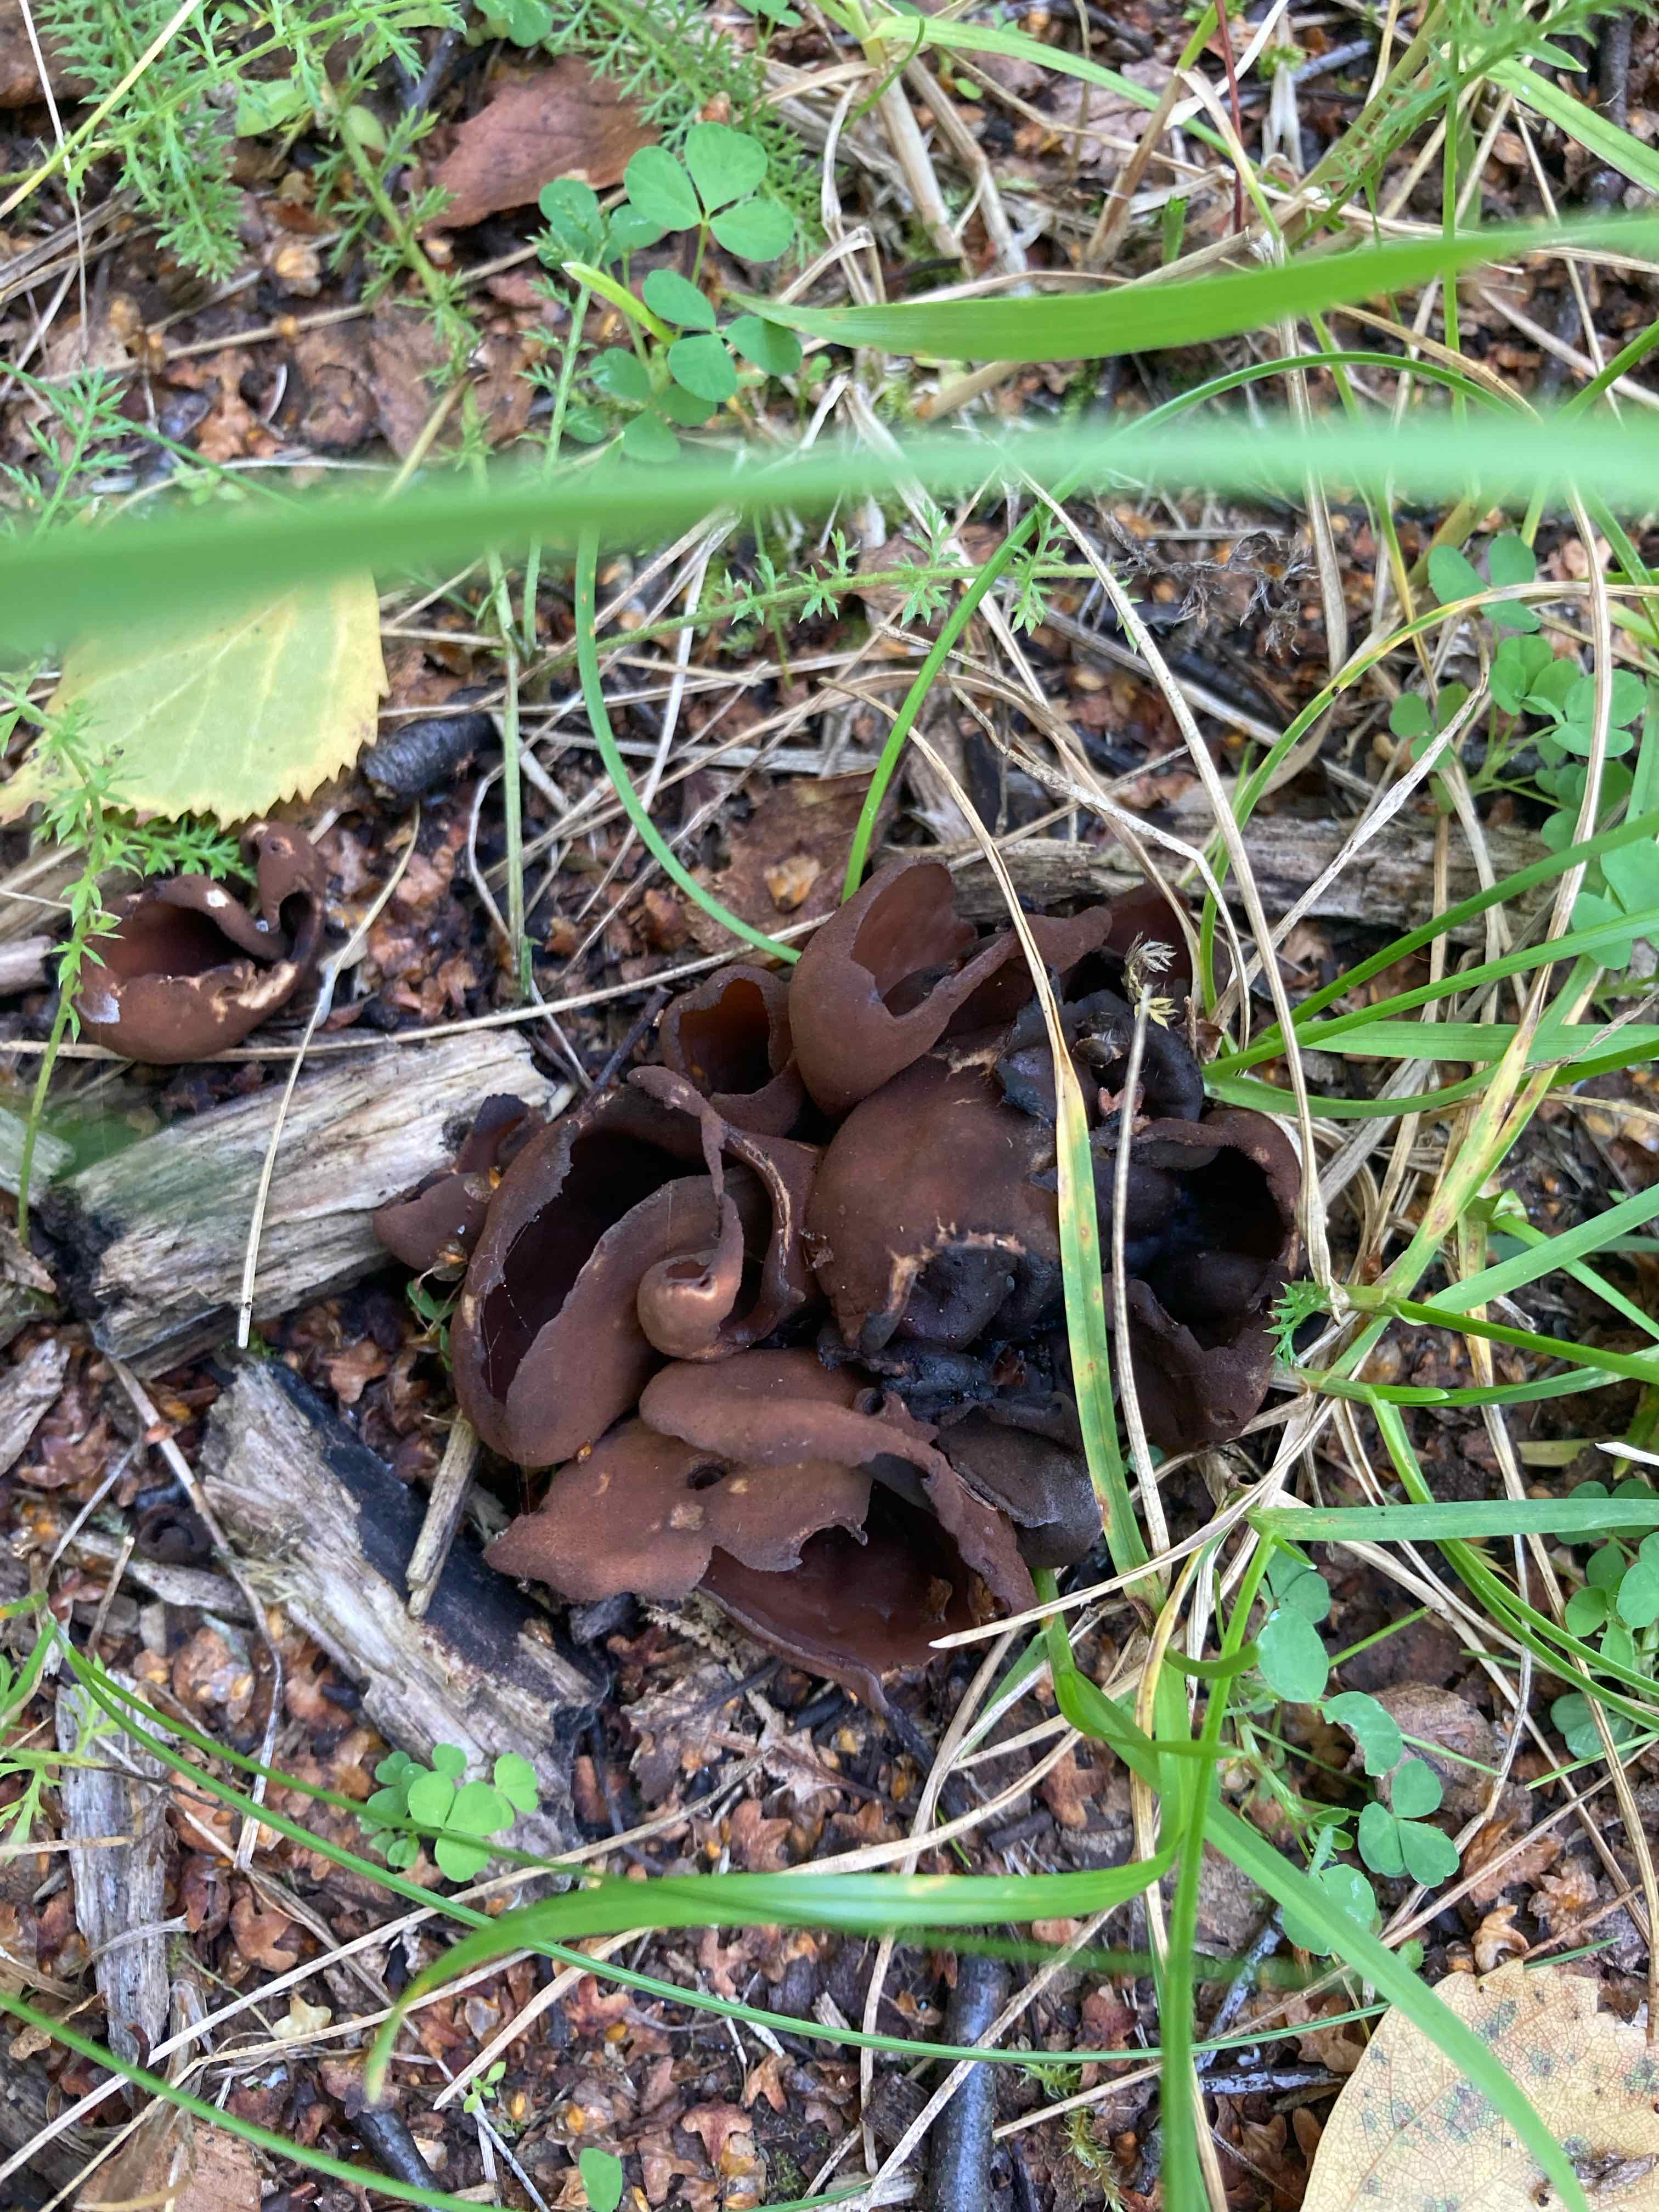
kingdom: Fungi
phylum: Ascomycota
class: Pezizomycetes
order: Pezizales
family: Otideaceae
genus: Otidea
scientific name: Otidea bufonia
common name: brun ørebæger
